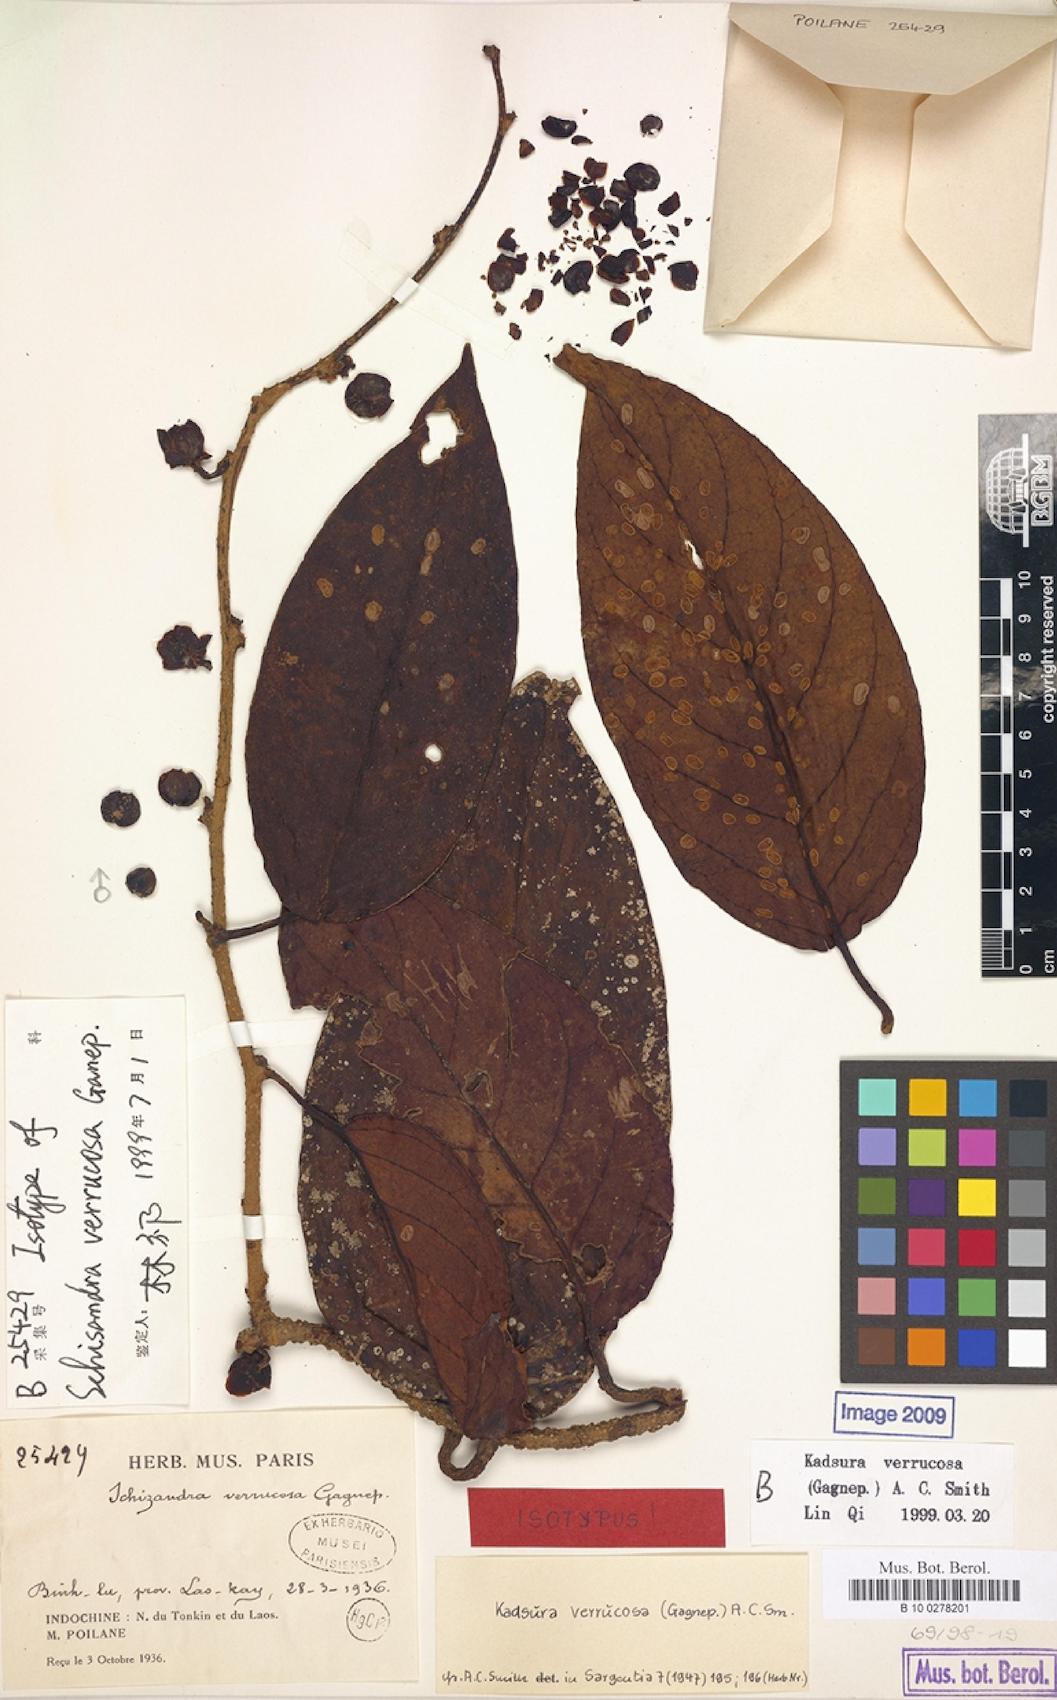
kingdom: Plantae
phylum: Tracheophyta
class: Magnoliopsida
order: Austrobaileyales
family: Schisandraceae
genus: Kadsura
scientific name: Kadsura verrucosa
